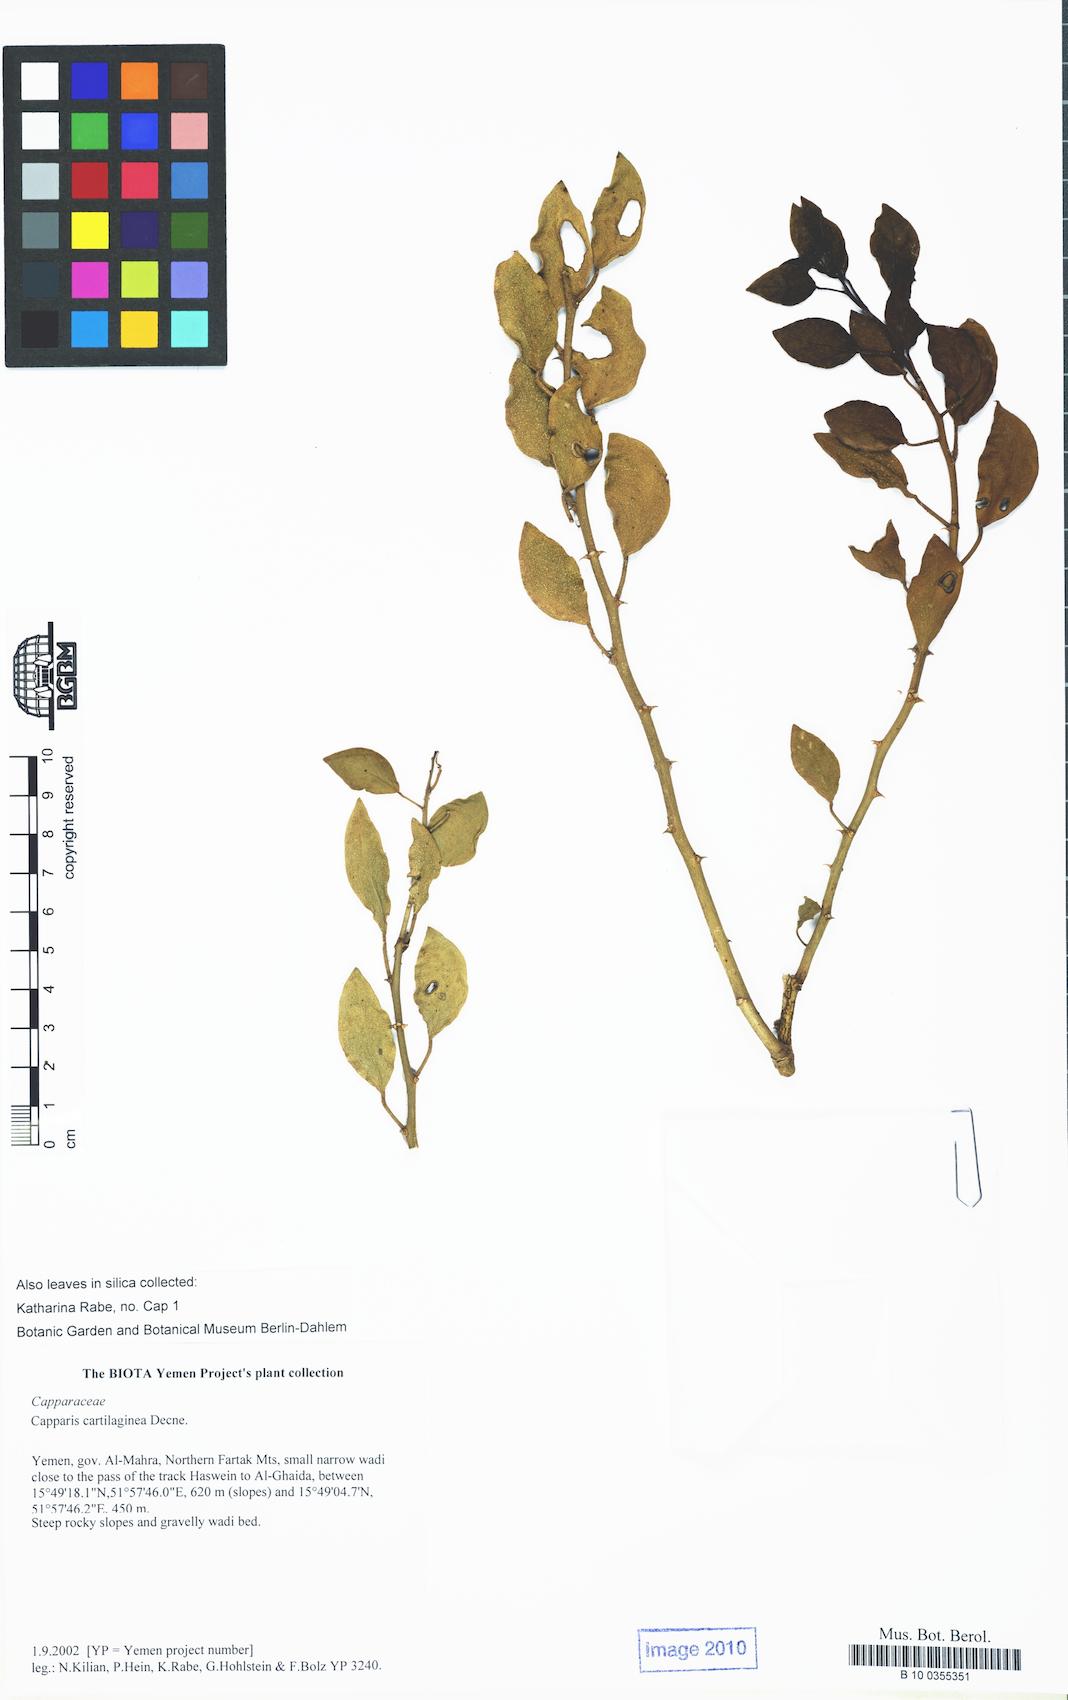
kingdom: Plantae
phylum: Tracheophyta
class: Magnoliopsida
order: Brassicales
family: Capparaceae
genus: Capparis
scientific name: Capparis cartilaginea
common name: Caper
